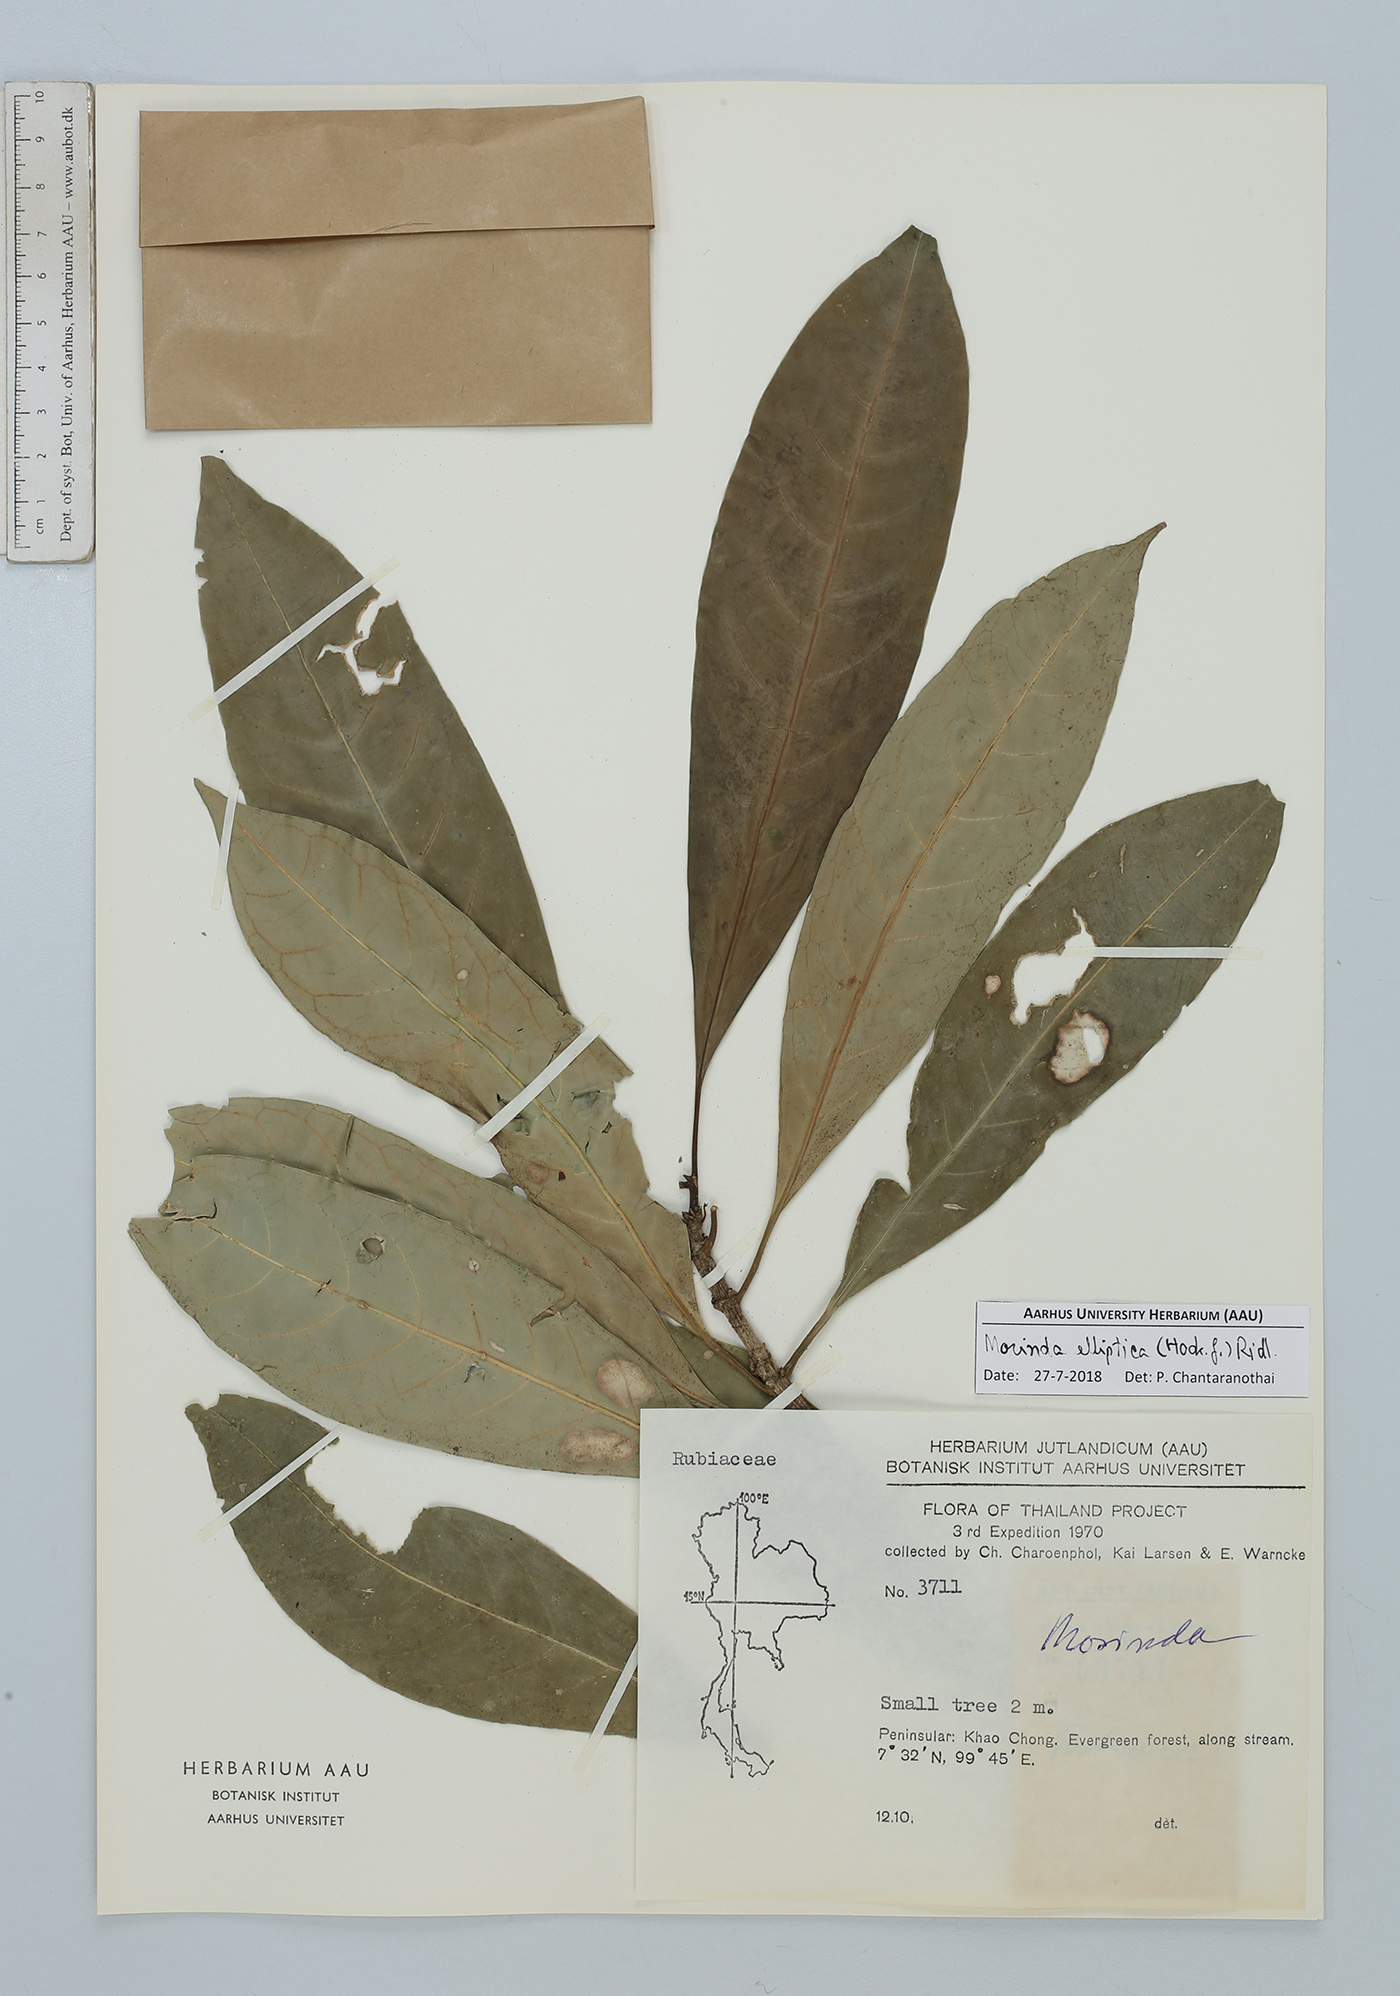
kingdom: Plantae
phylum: Tracheophyta
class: Magnoliopsida
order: Gentianales
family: Rubiaceae
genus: Morinda
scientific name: Morinda elliptica
